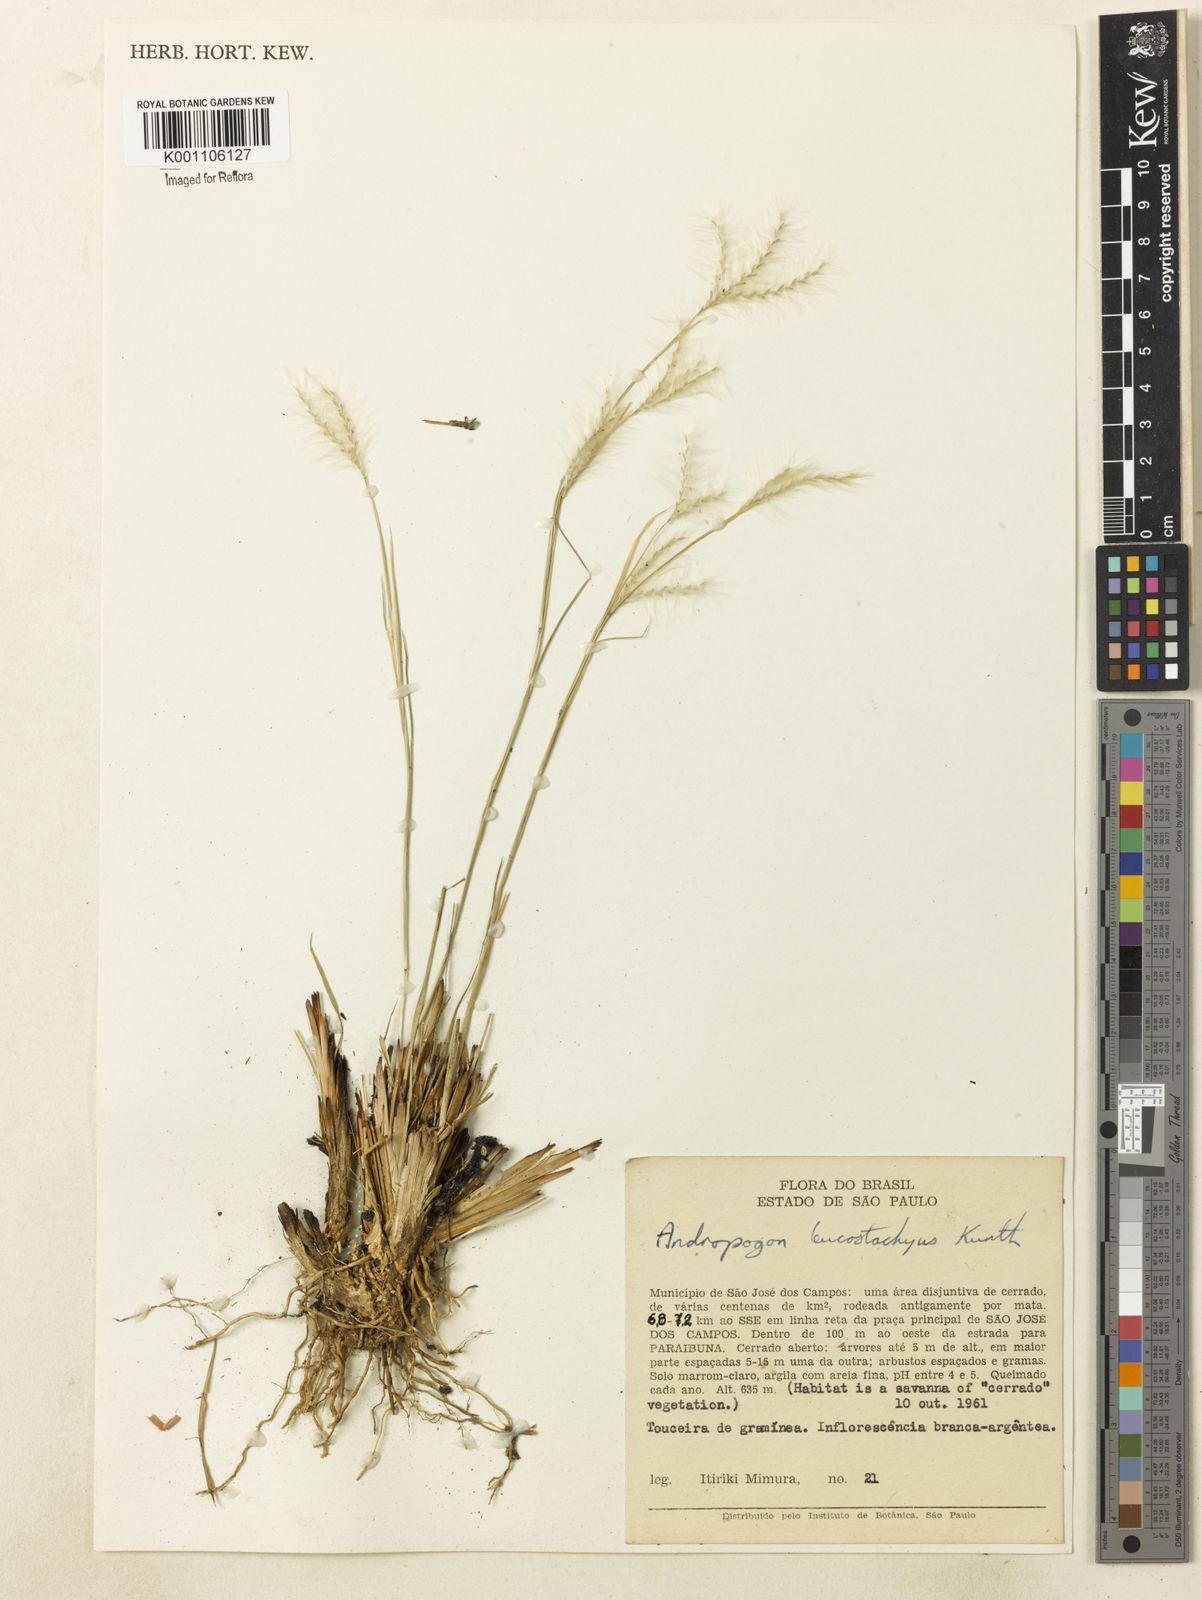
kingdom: Plantae
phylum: Tracheophyta
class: Liliopsida
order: Poales
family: Poaceae
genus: Andropogon
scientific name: Andropogon leucostachyus
